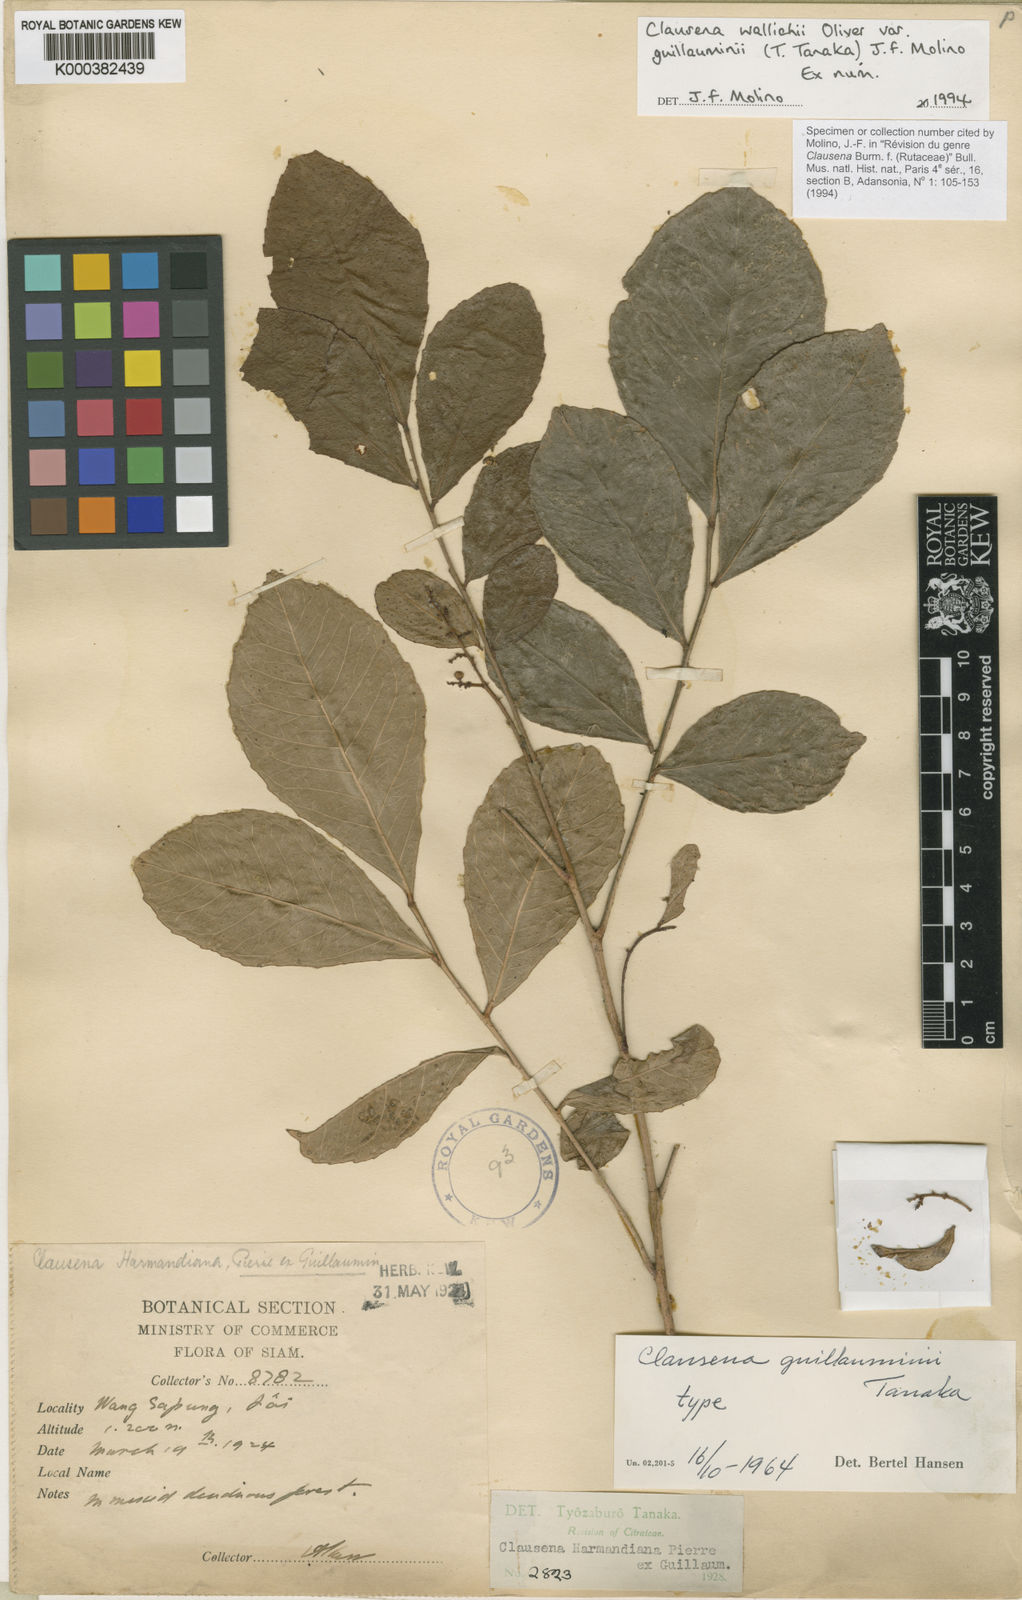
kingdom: Plantae
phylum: Tracheophyta
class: Magnoliopsida
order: Sapindales
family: Rutaceae
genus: Clausena
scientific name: Clausena wallichii
